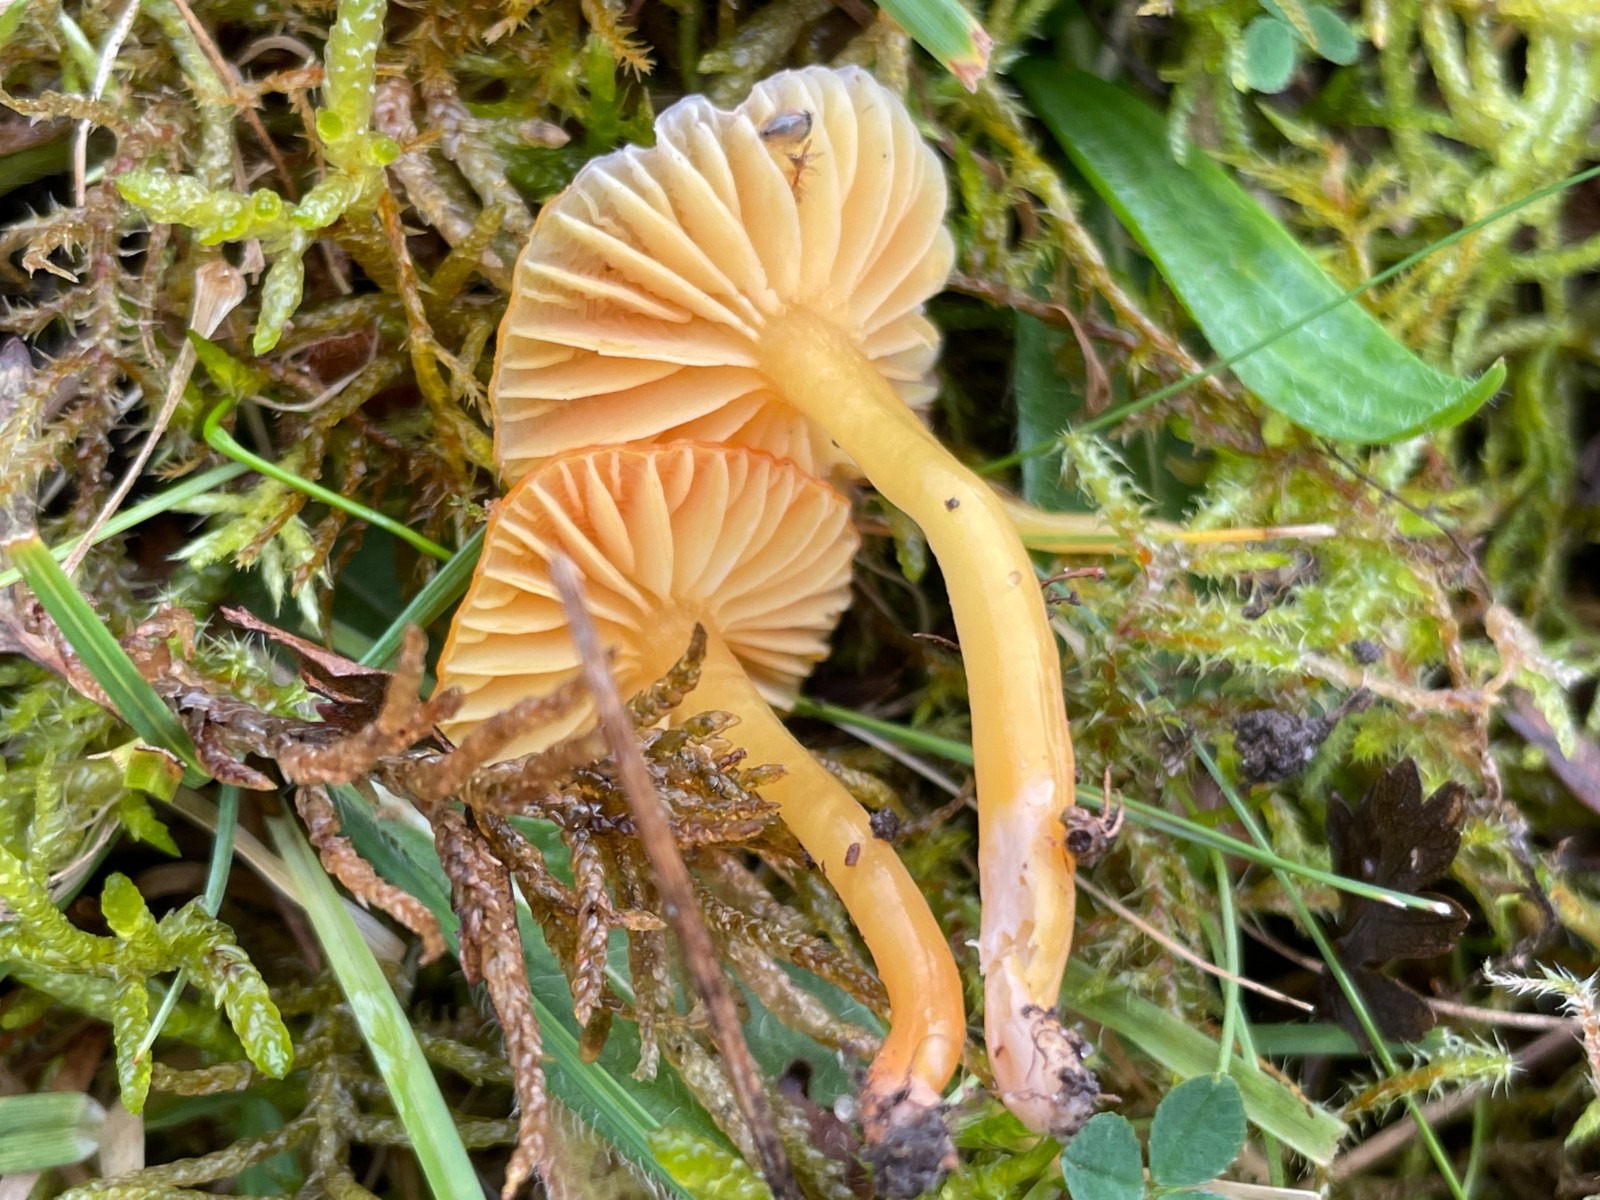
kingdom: Fungi
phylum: Basidiomycota
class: Agaricomycetes
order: Agaricales
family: Hygrophoraceae
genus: Hygrocybe
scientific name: Hygrocybe mucronella
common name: bitter vokshat
